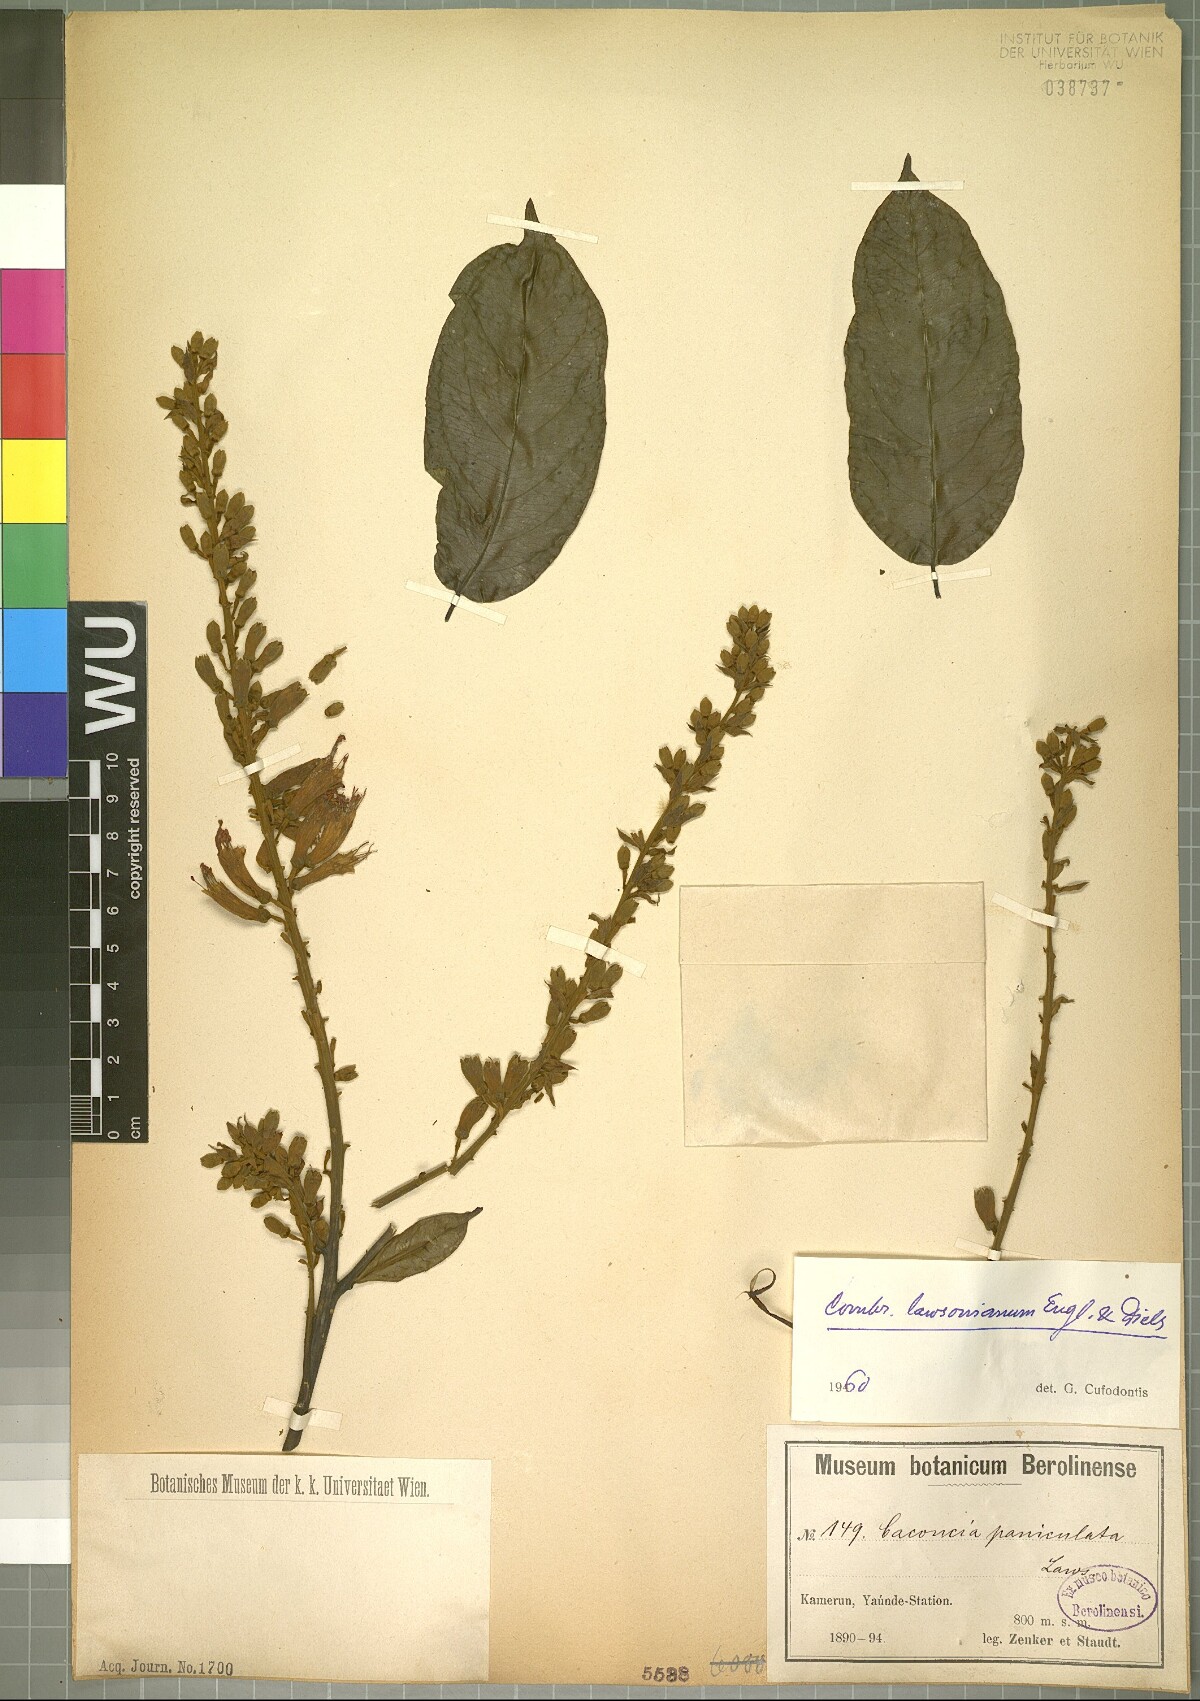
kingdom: Plantae
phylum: Tracheophyta
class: Magnoliopsida
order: Myrtales
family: Combretaceae
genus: Combretum
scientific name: Combretum platypterum
